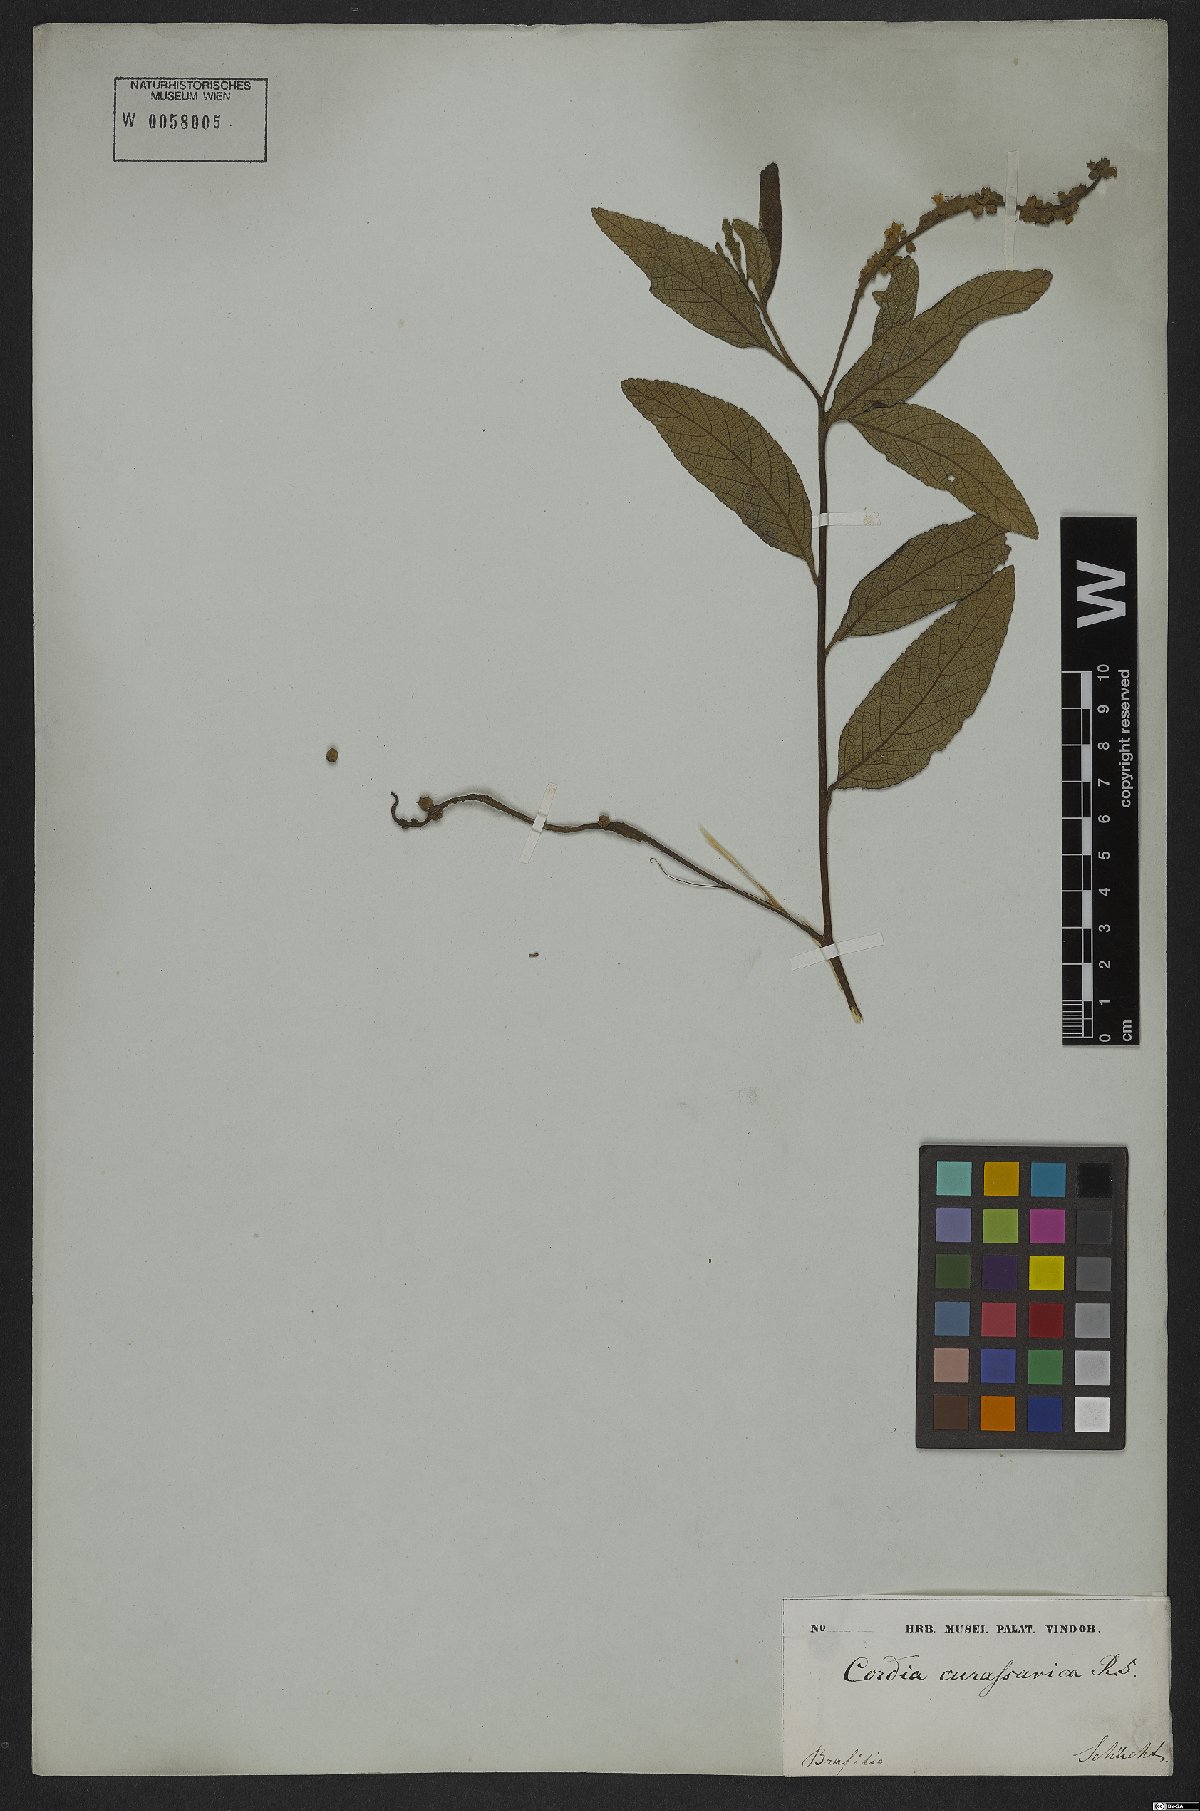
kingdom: Plantae
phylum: Tracheophyta
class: Magnoliopsida
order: Boraginales
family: Cordiaceae
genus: Varronia
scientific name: Varronia curassavica
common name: Black sage
